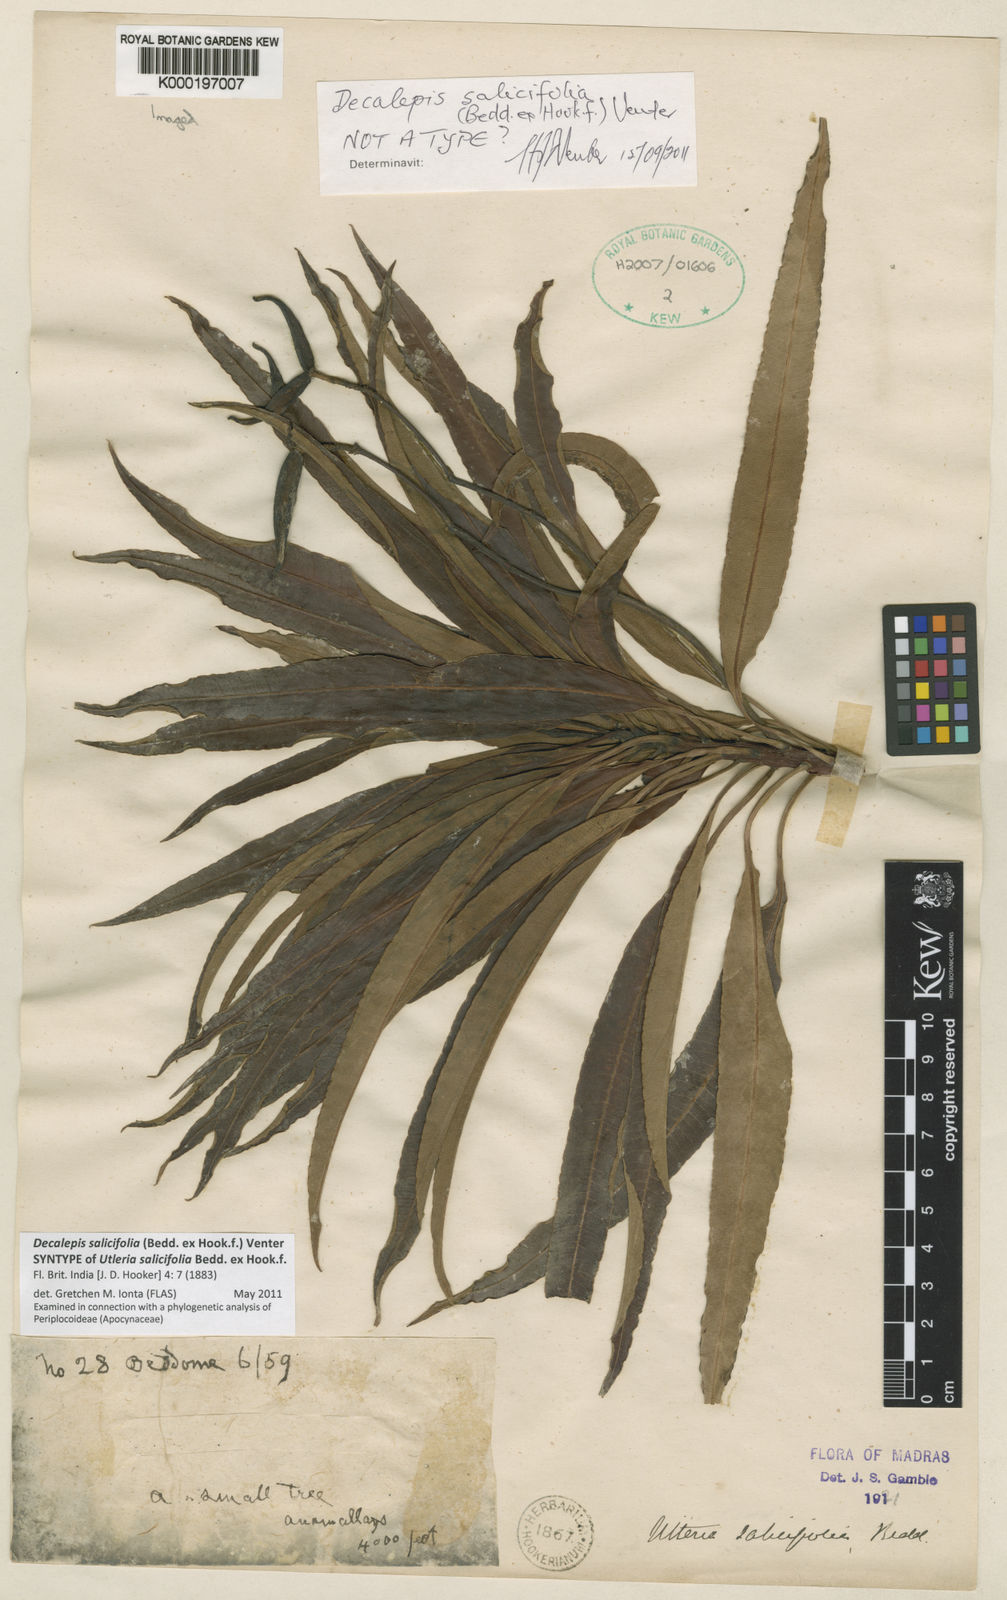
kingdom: Plantae
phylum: Tracheophyta
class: Magnoliopsida
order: Brassicales
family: Brassicaceae
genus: Cardamine
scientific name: Cardamine pratensis
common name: Cuckoo flower
